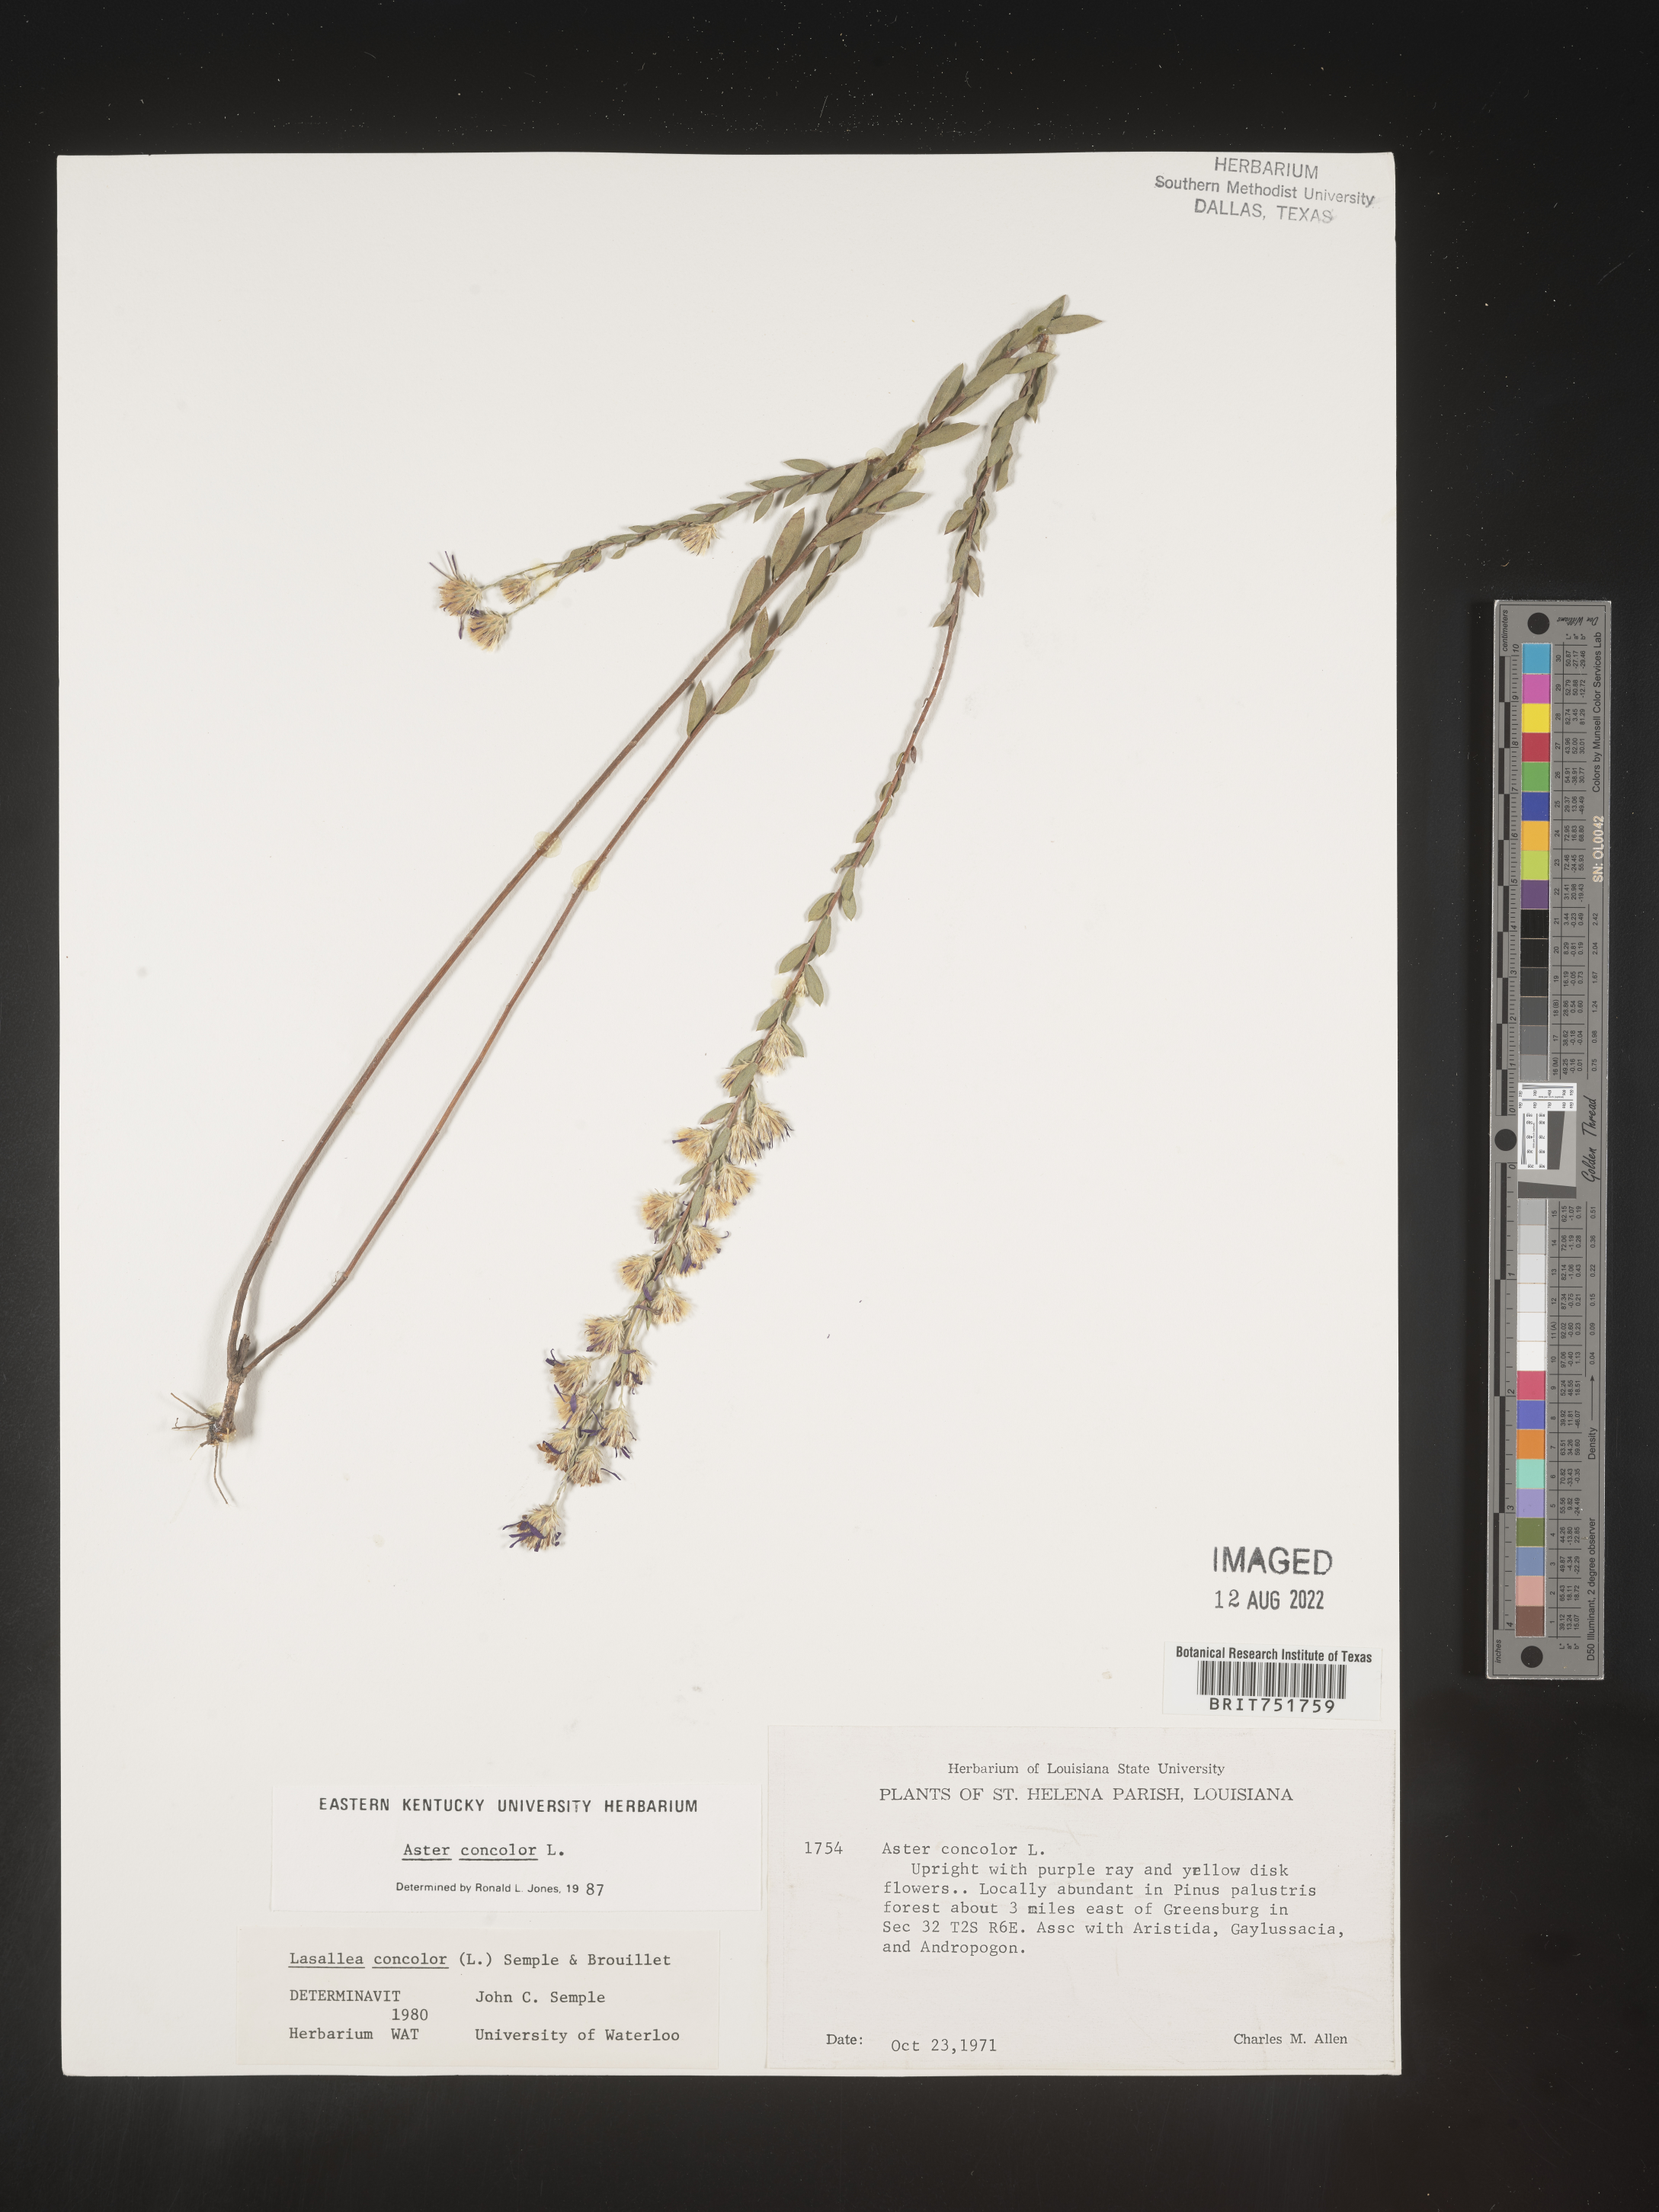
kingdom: Plantae
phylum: Tracheophyta
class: Magnoliopsida
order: Asterales
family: Asteraceae
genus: Symphyotrichum
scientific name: Symphyotrichum concolor
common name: Eastern silver aster
